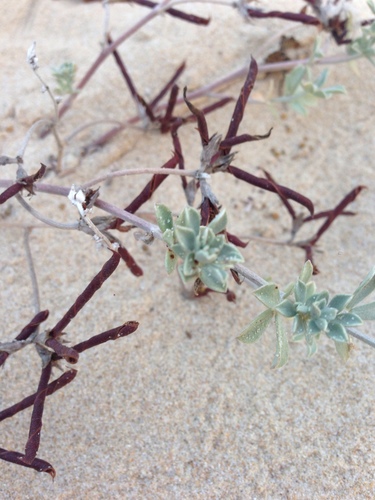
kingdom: Plantae
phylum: Tracheophyta
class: Magnoliopsida
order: Fabales
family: Fabaceae
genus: Medicago
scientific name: Medicago marina
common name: Sea medick
